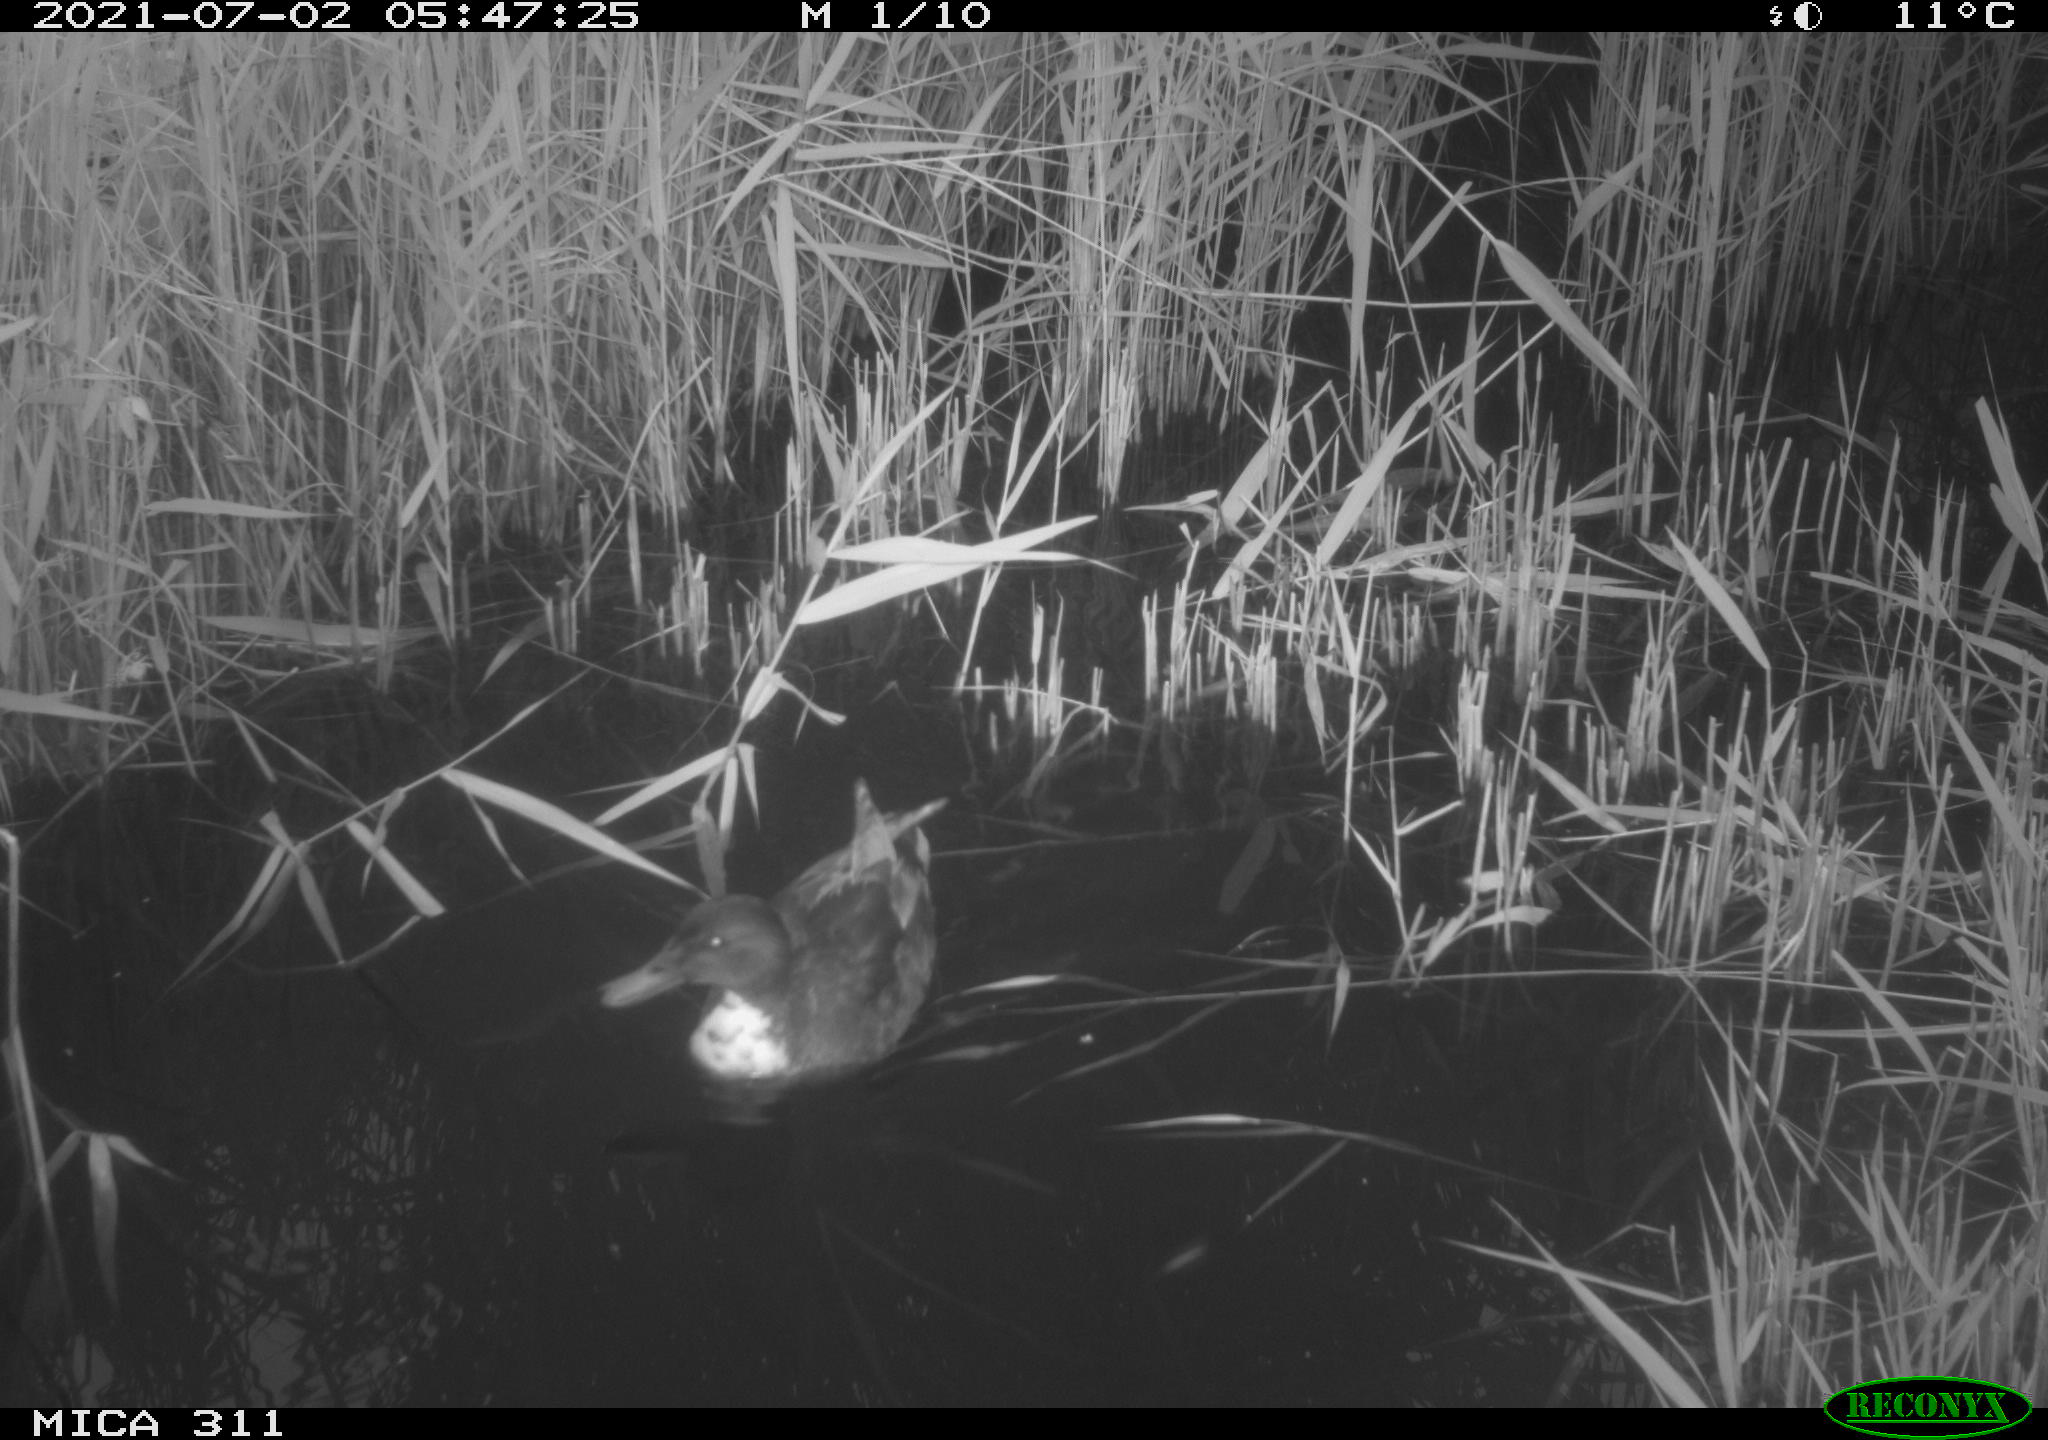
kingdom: Animalia
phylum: Chordata
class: Aves
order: Anseriformes
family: Anatidae
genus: Anas
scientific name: Anas
